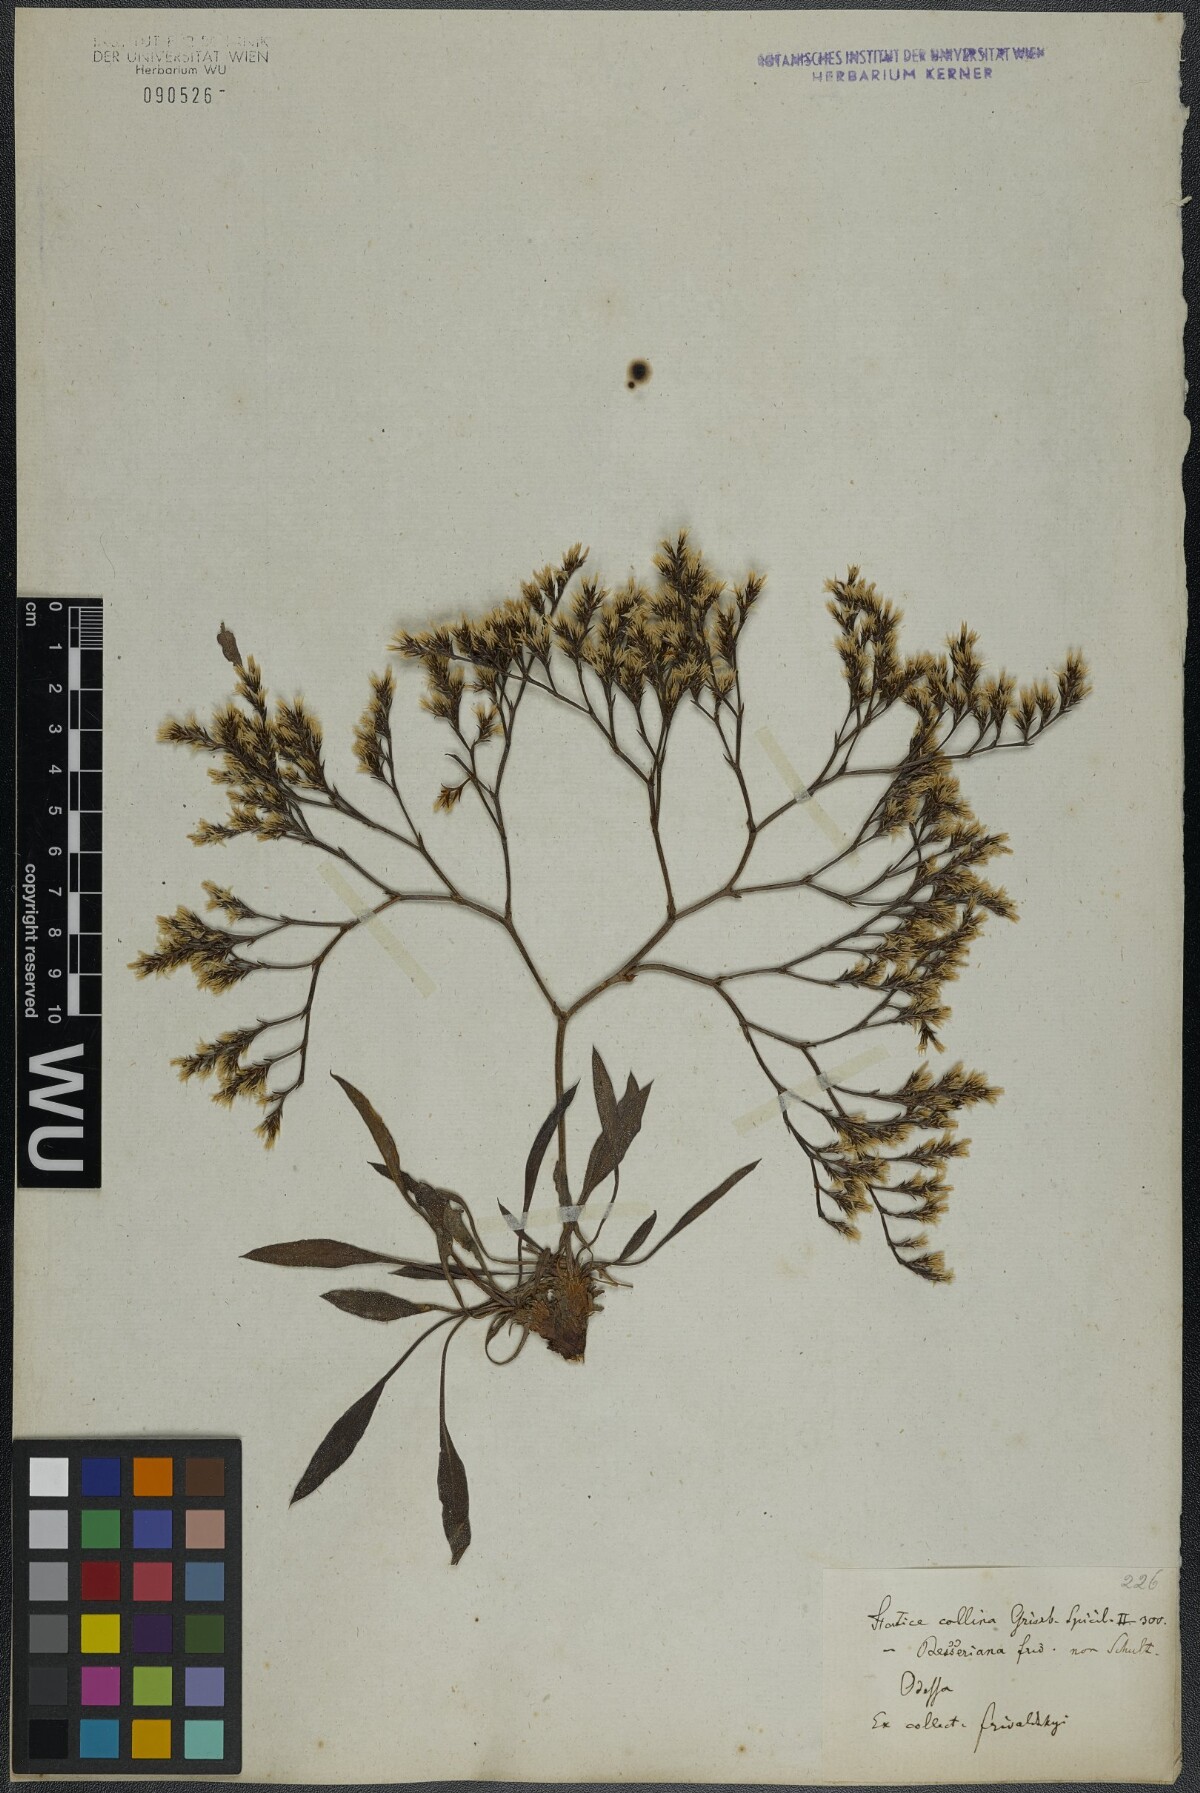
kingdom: Plantae
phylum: Tracheophyta
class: Magnoliopsida
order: Caryophyllales
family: Plumbaginaceae
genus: Goniolimon
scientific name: Goniolimon incanum
